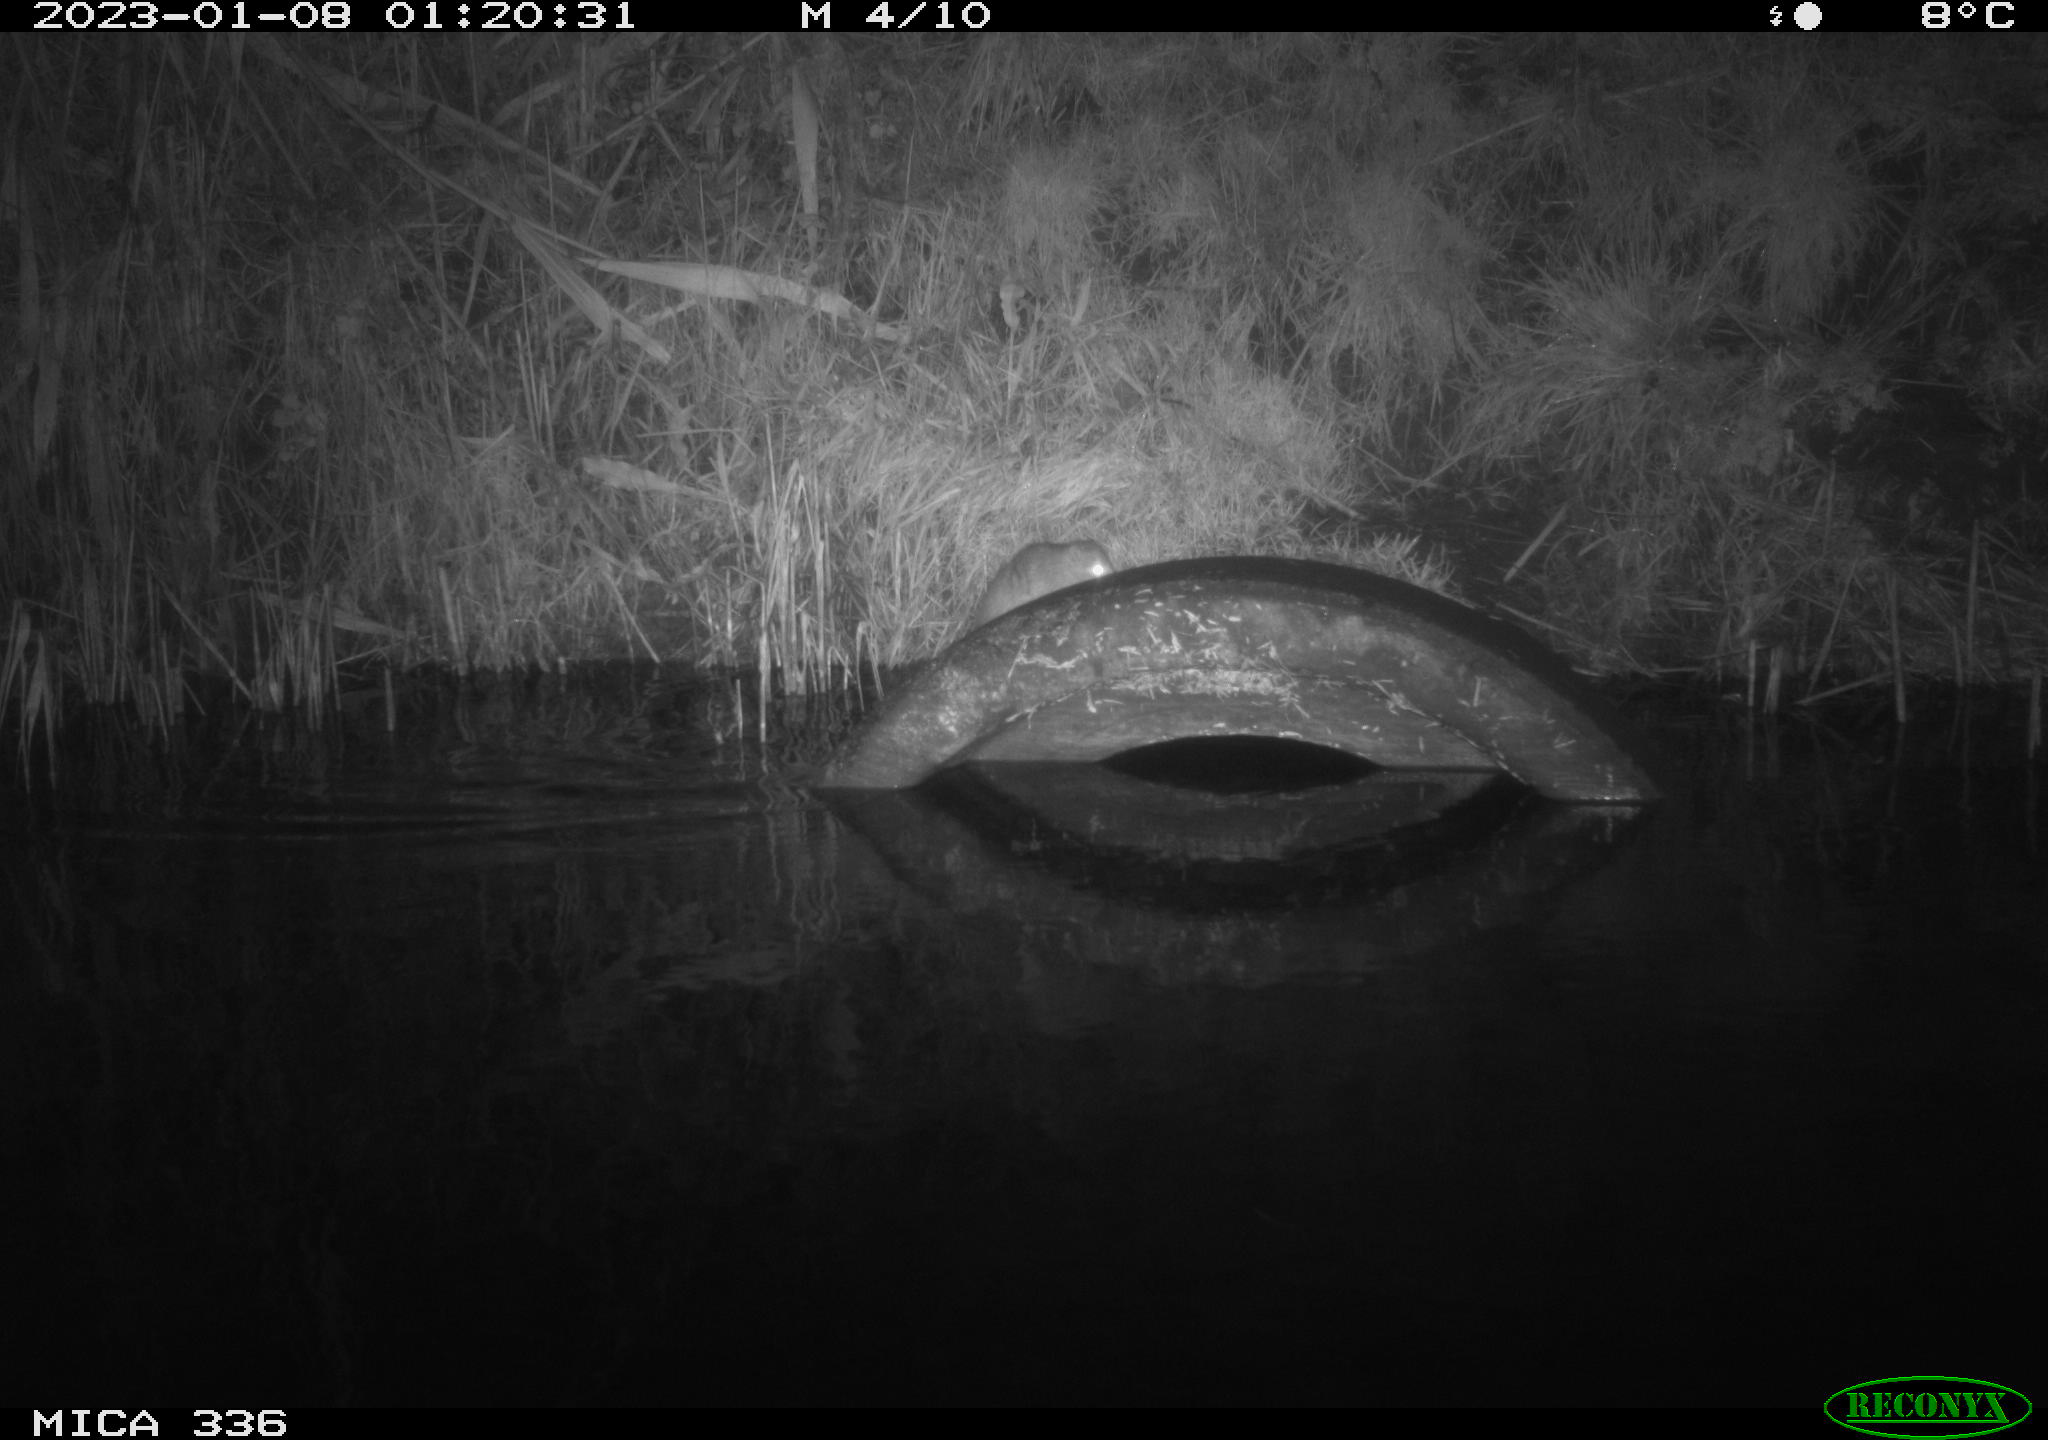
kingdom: Animalia
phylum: Chordata
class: Mammalia
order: Rodentia
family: Muridae
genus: Rattus
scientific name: Rattus norvegicus
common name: Brown rat
